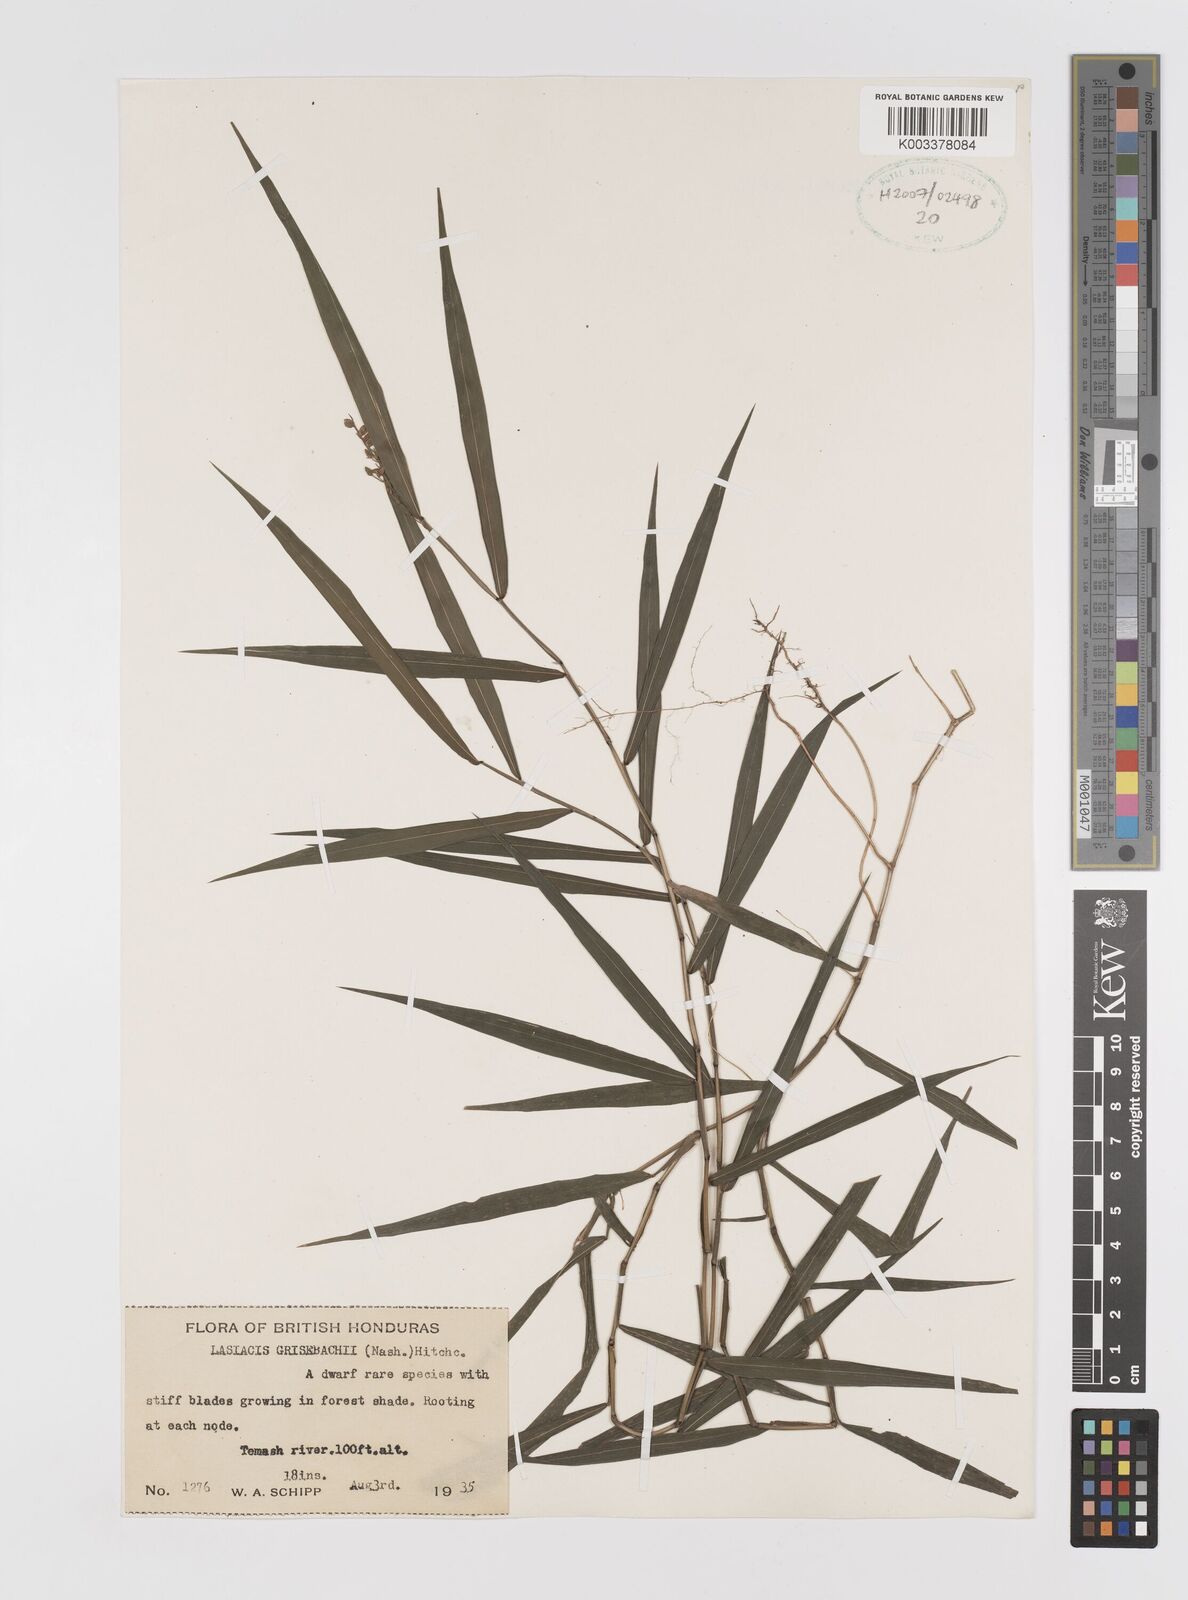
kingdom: Plantae
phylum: Tracheophyta
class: Liliopsida
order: Poales
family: Poaceae
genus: Lasiacis
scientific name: Lasiacis grisebachii
